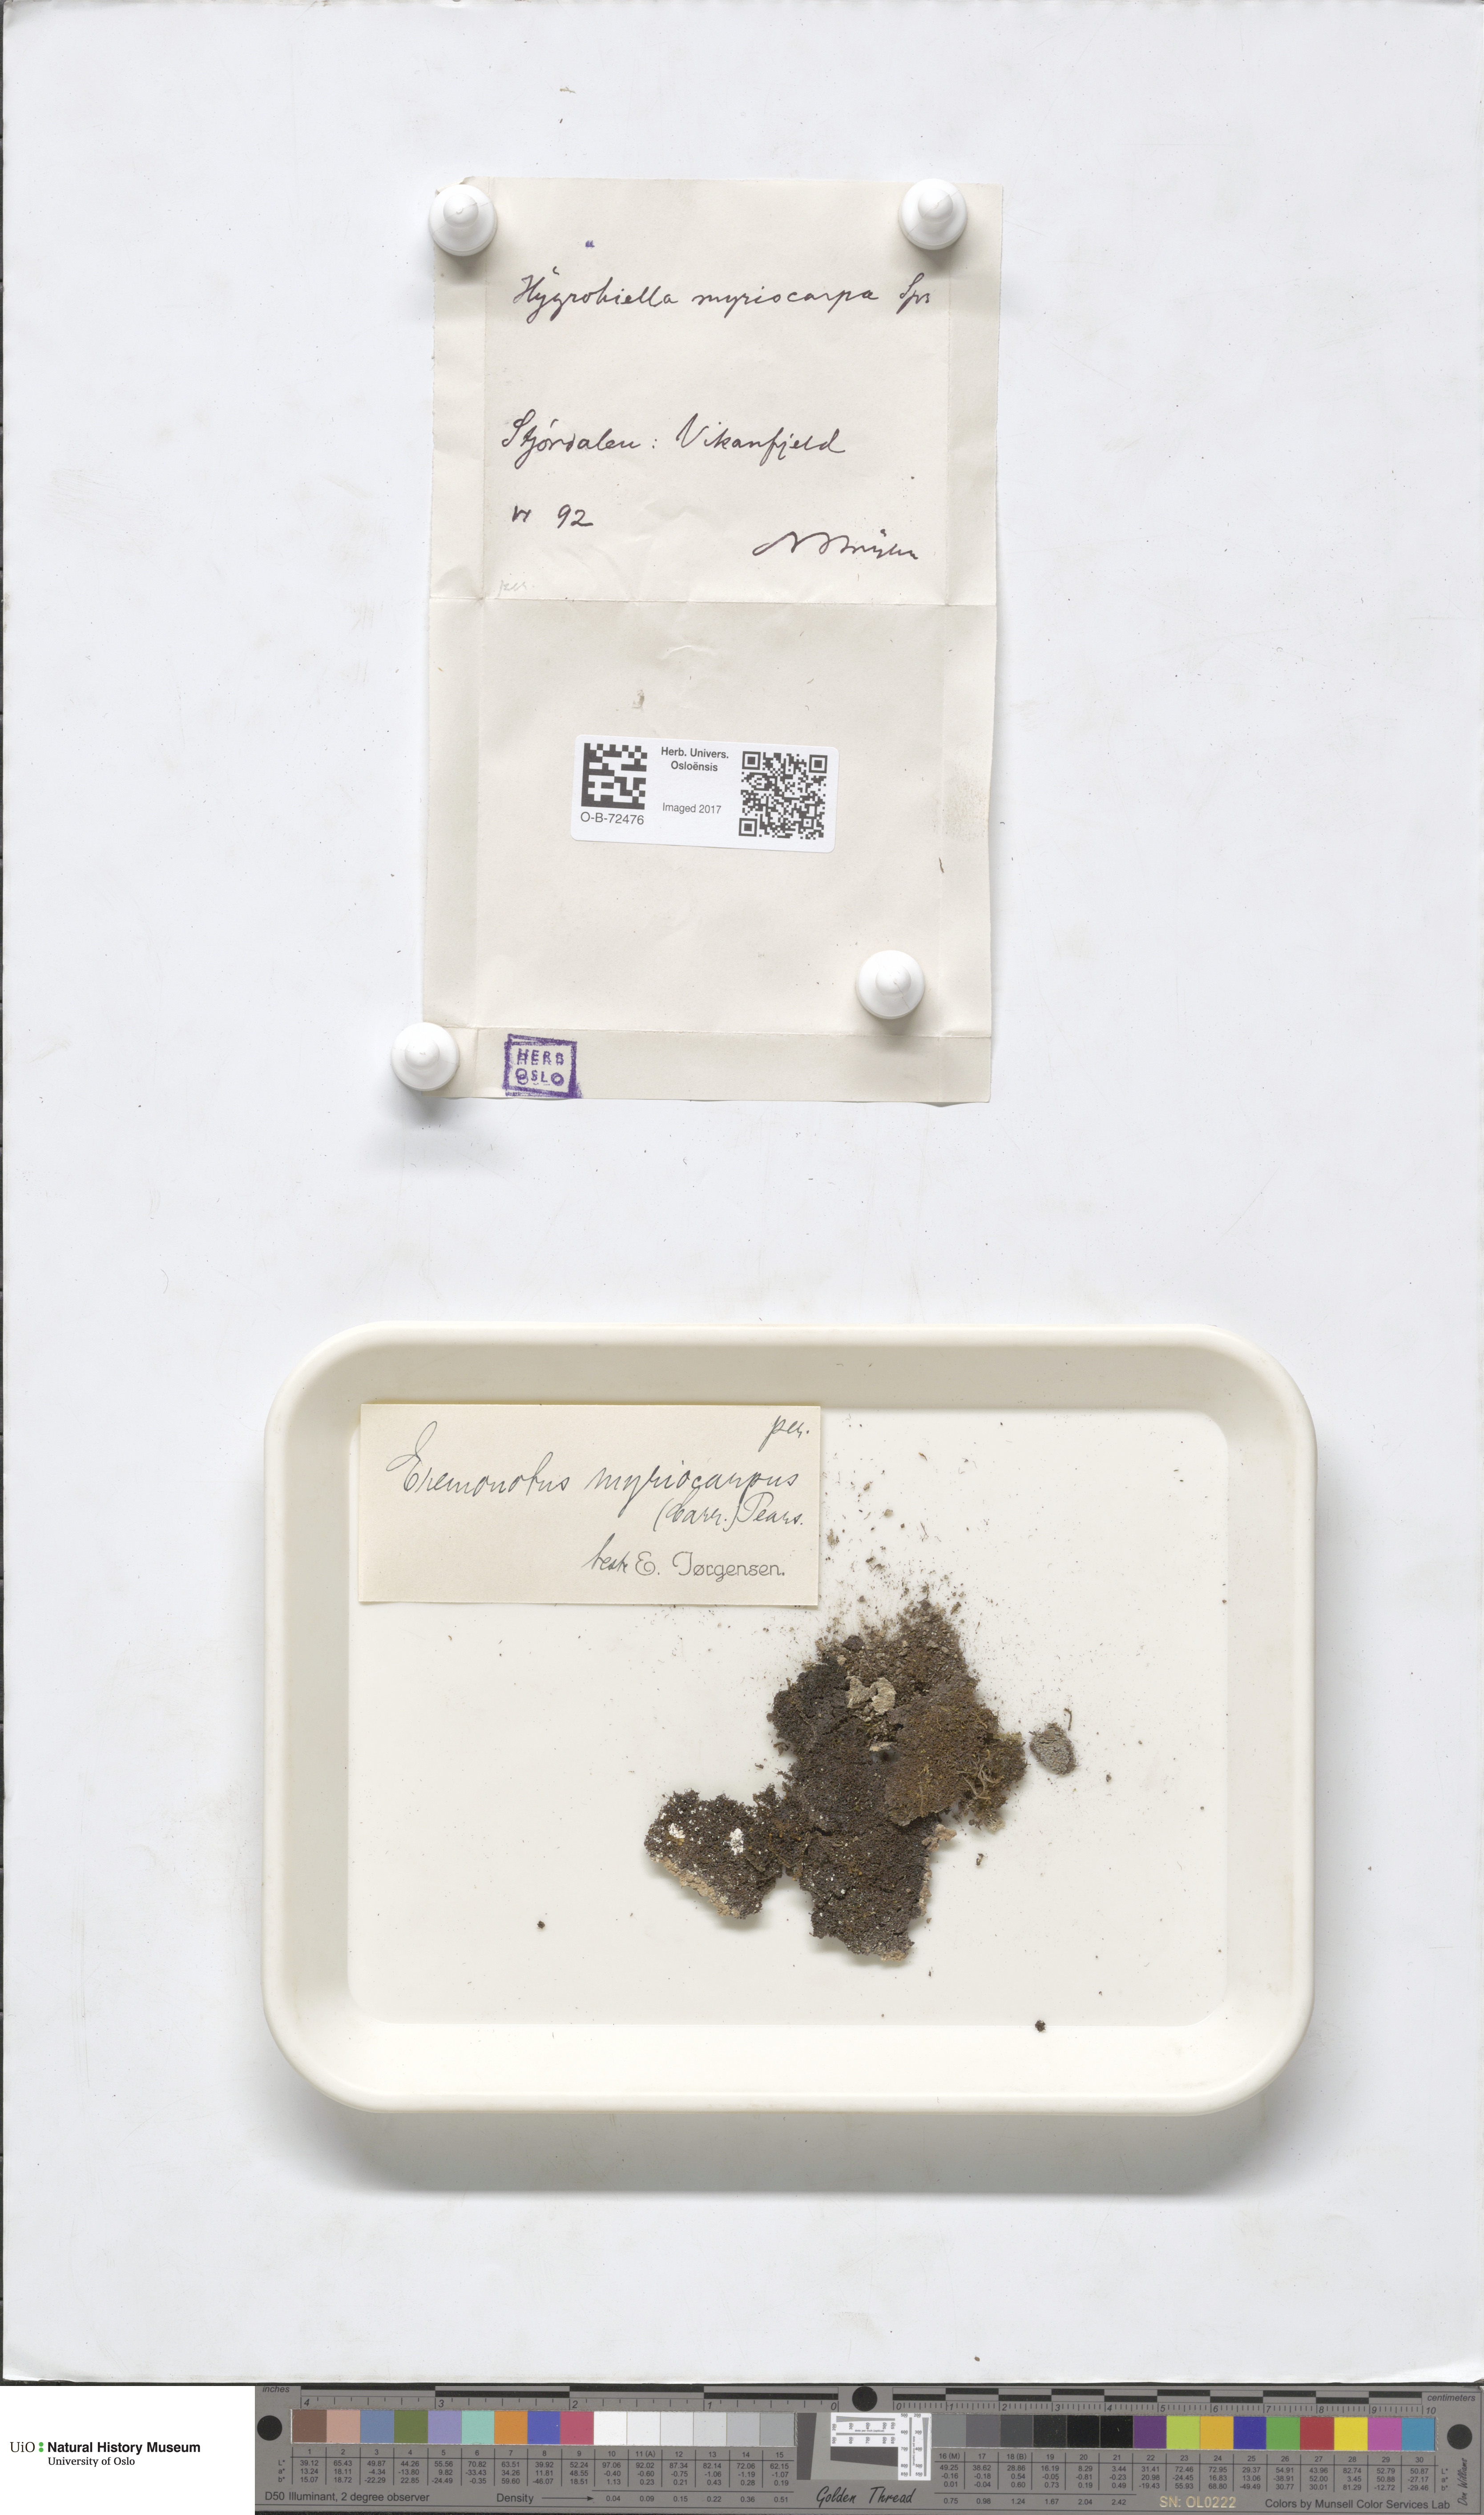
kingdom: Plantae
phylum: Marchantiophyta
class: Jungermanniopsida
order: Jungermanniales
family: Jungermanniaceae
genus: Eremonotus
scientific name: Eremonotus myriocarpus
